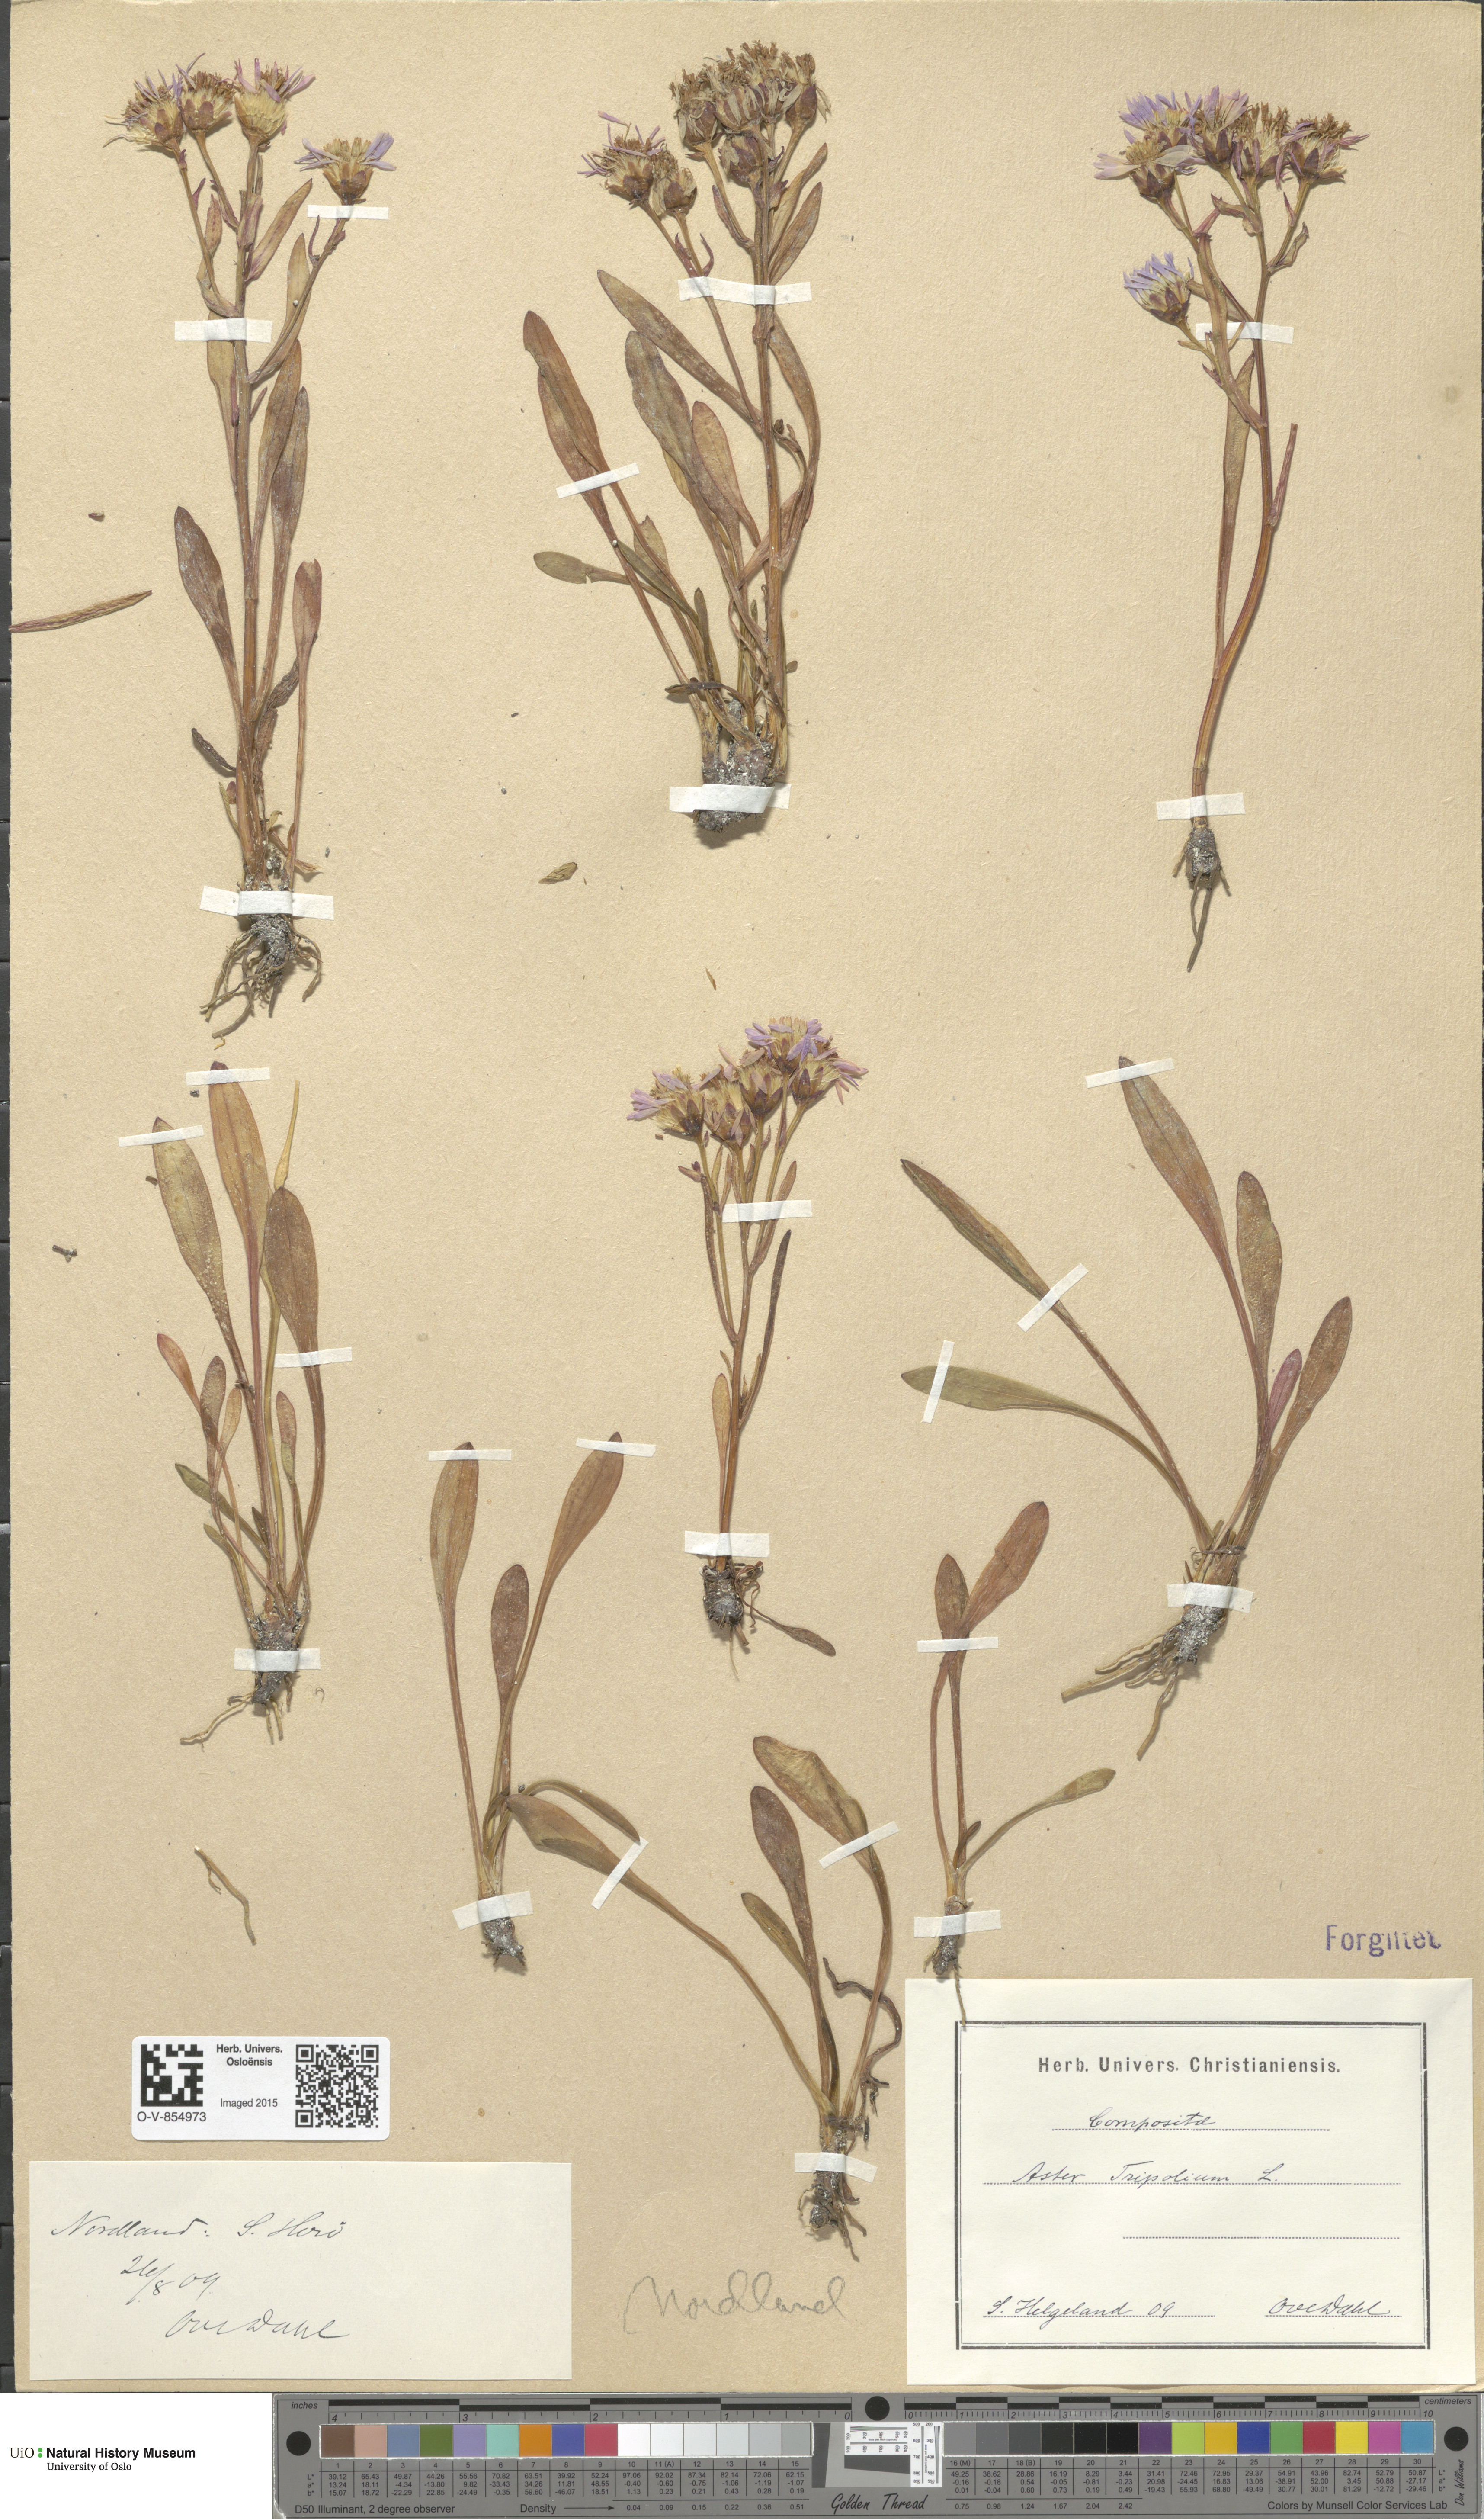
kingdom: Plantae
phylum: Tracheophyta
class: Magnoliopsida
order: Asterales
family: Asteraceae
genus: Tripolium
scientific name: Tripolium pannonicum
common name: Sea aster
